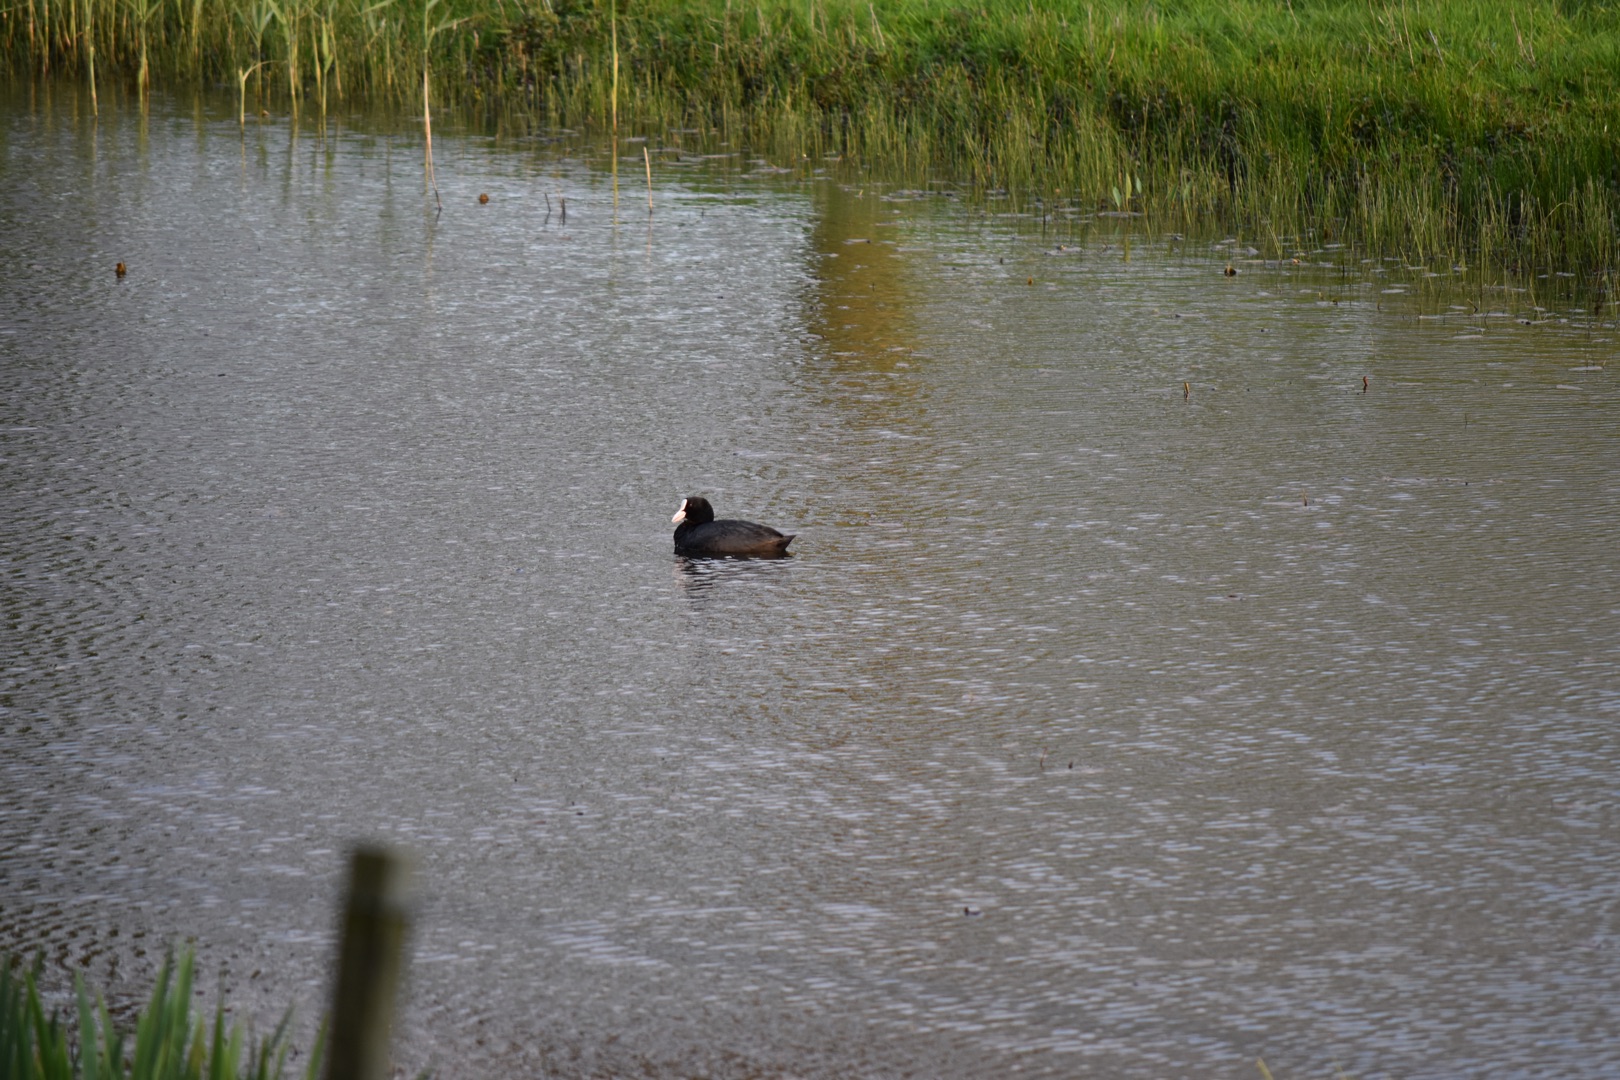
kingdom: Animalia
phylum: Chordata
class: Aves
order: Gruiformes
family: Rallidae
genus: Fulica
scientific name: Fulica atra
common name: Blishøne
